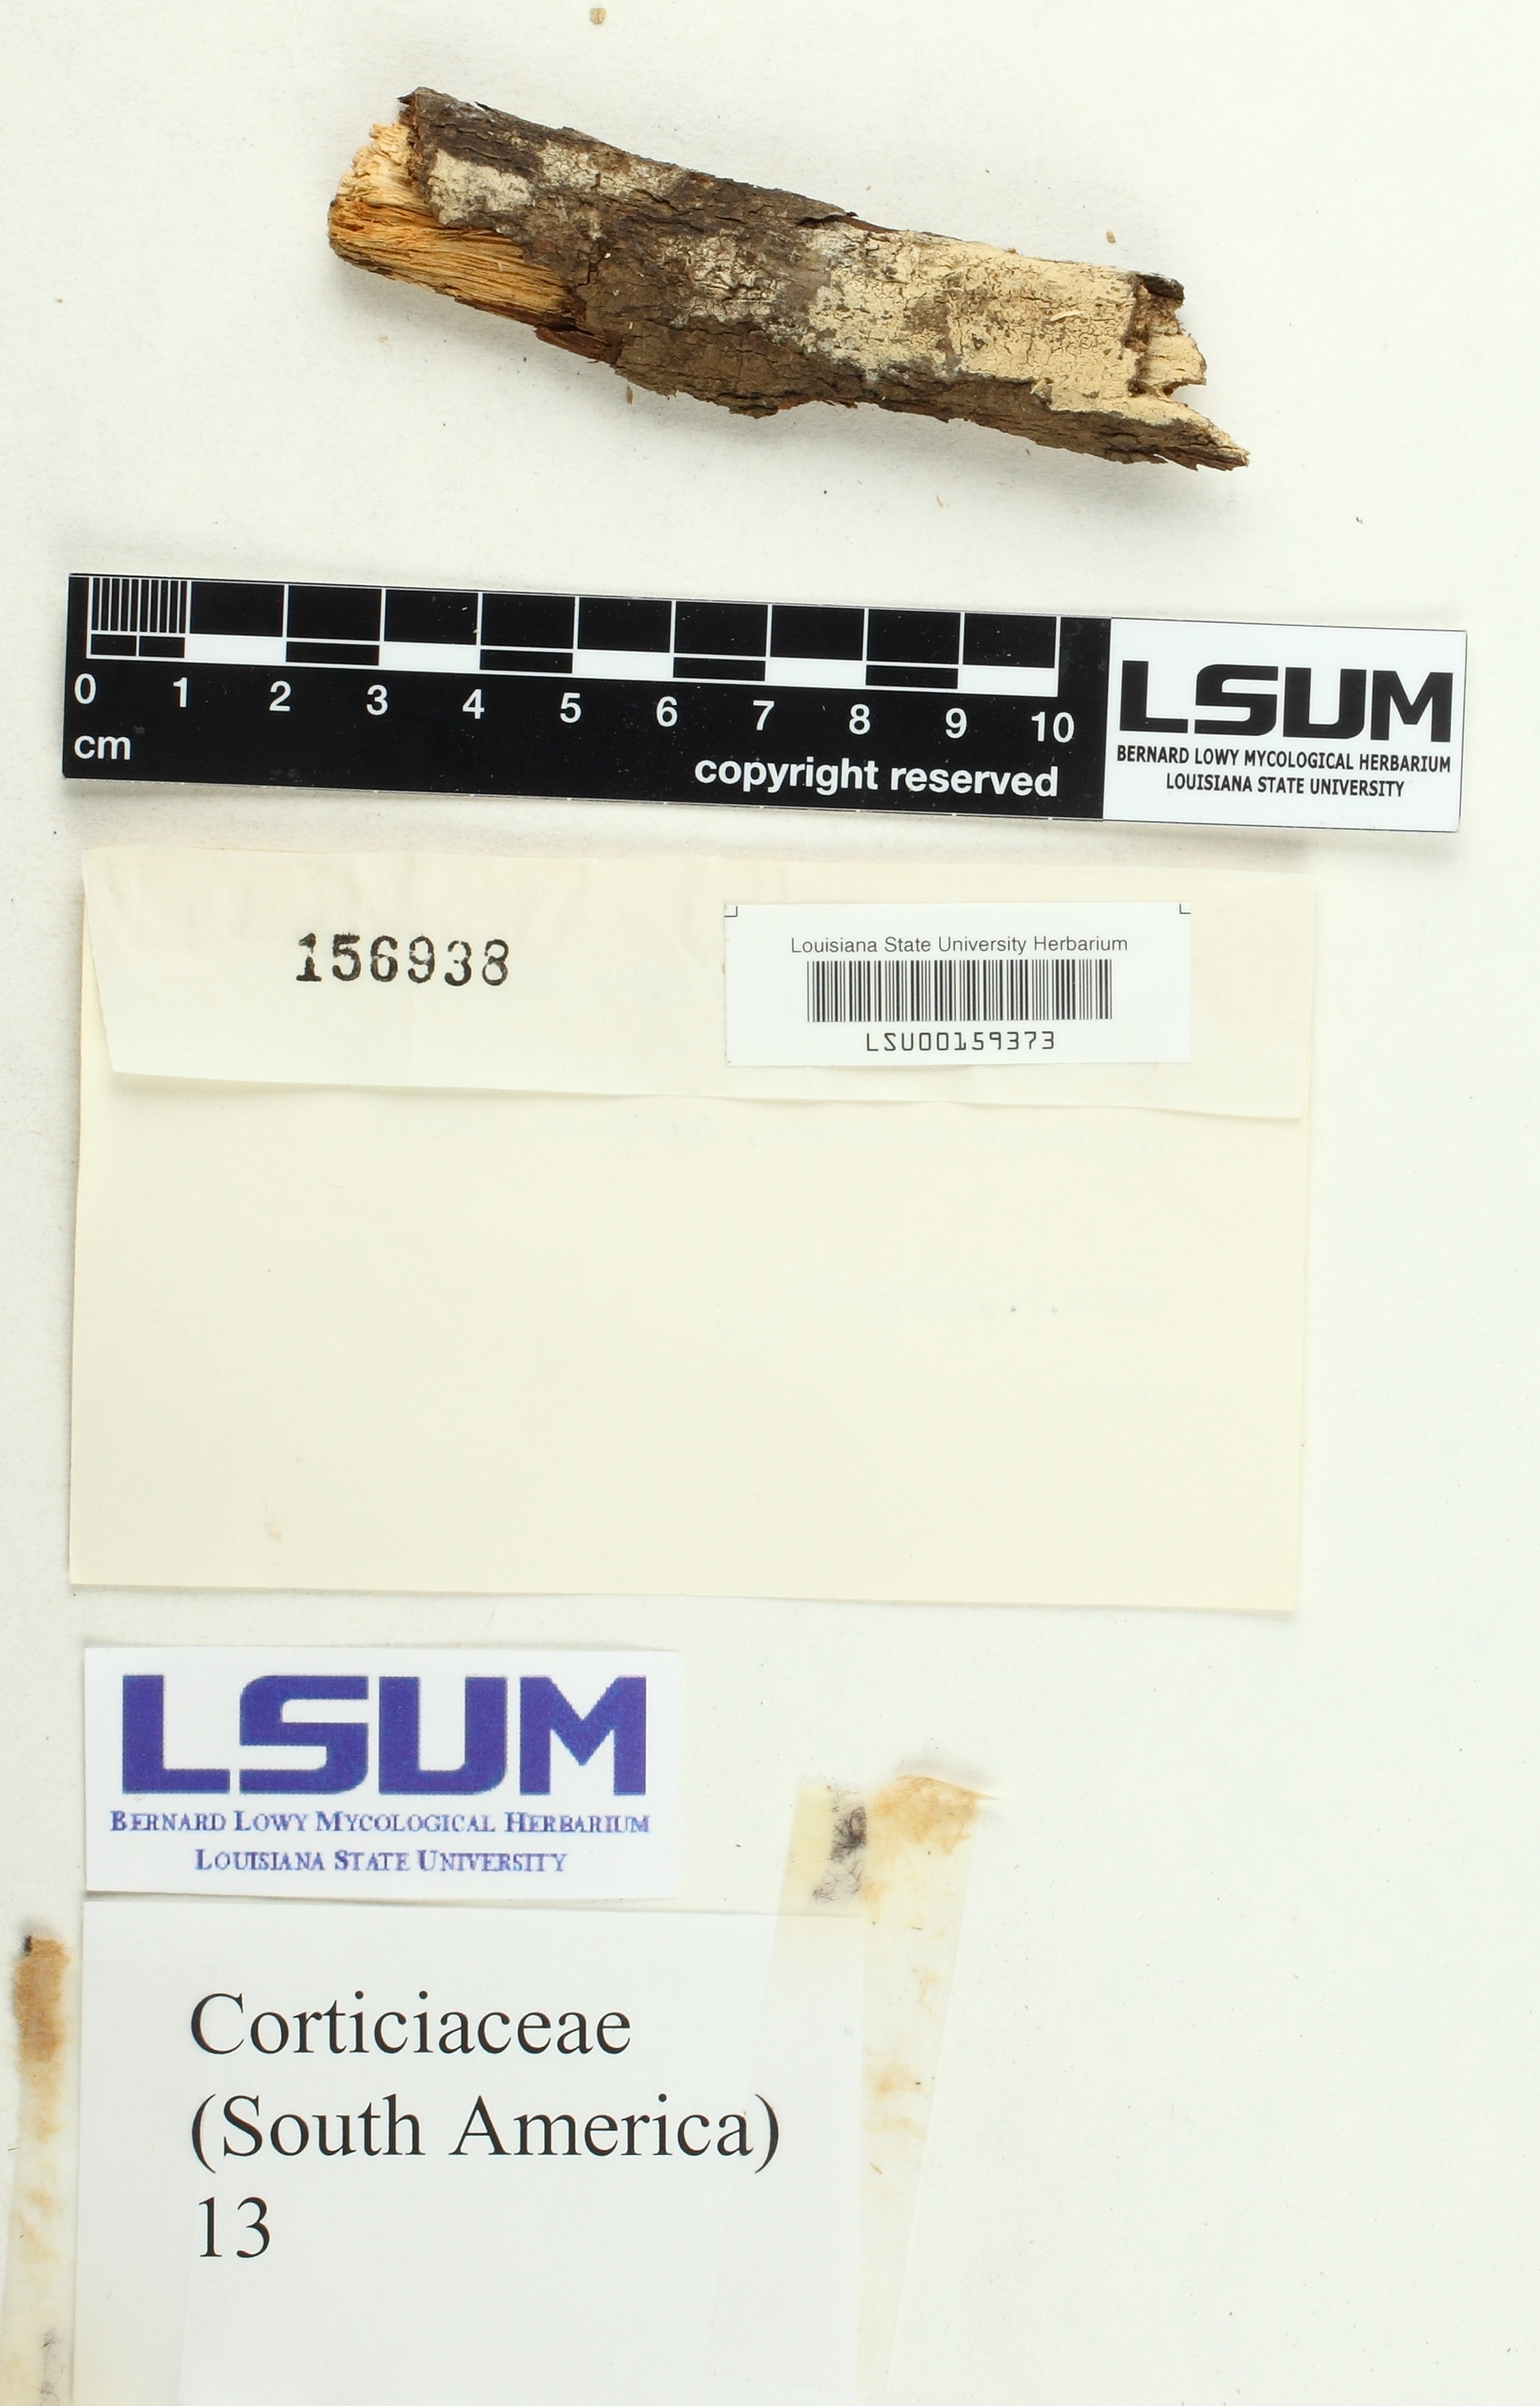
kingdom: Fungi
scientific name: Fungi
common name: Fungi
